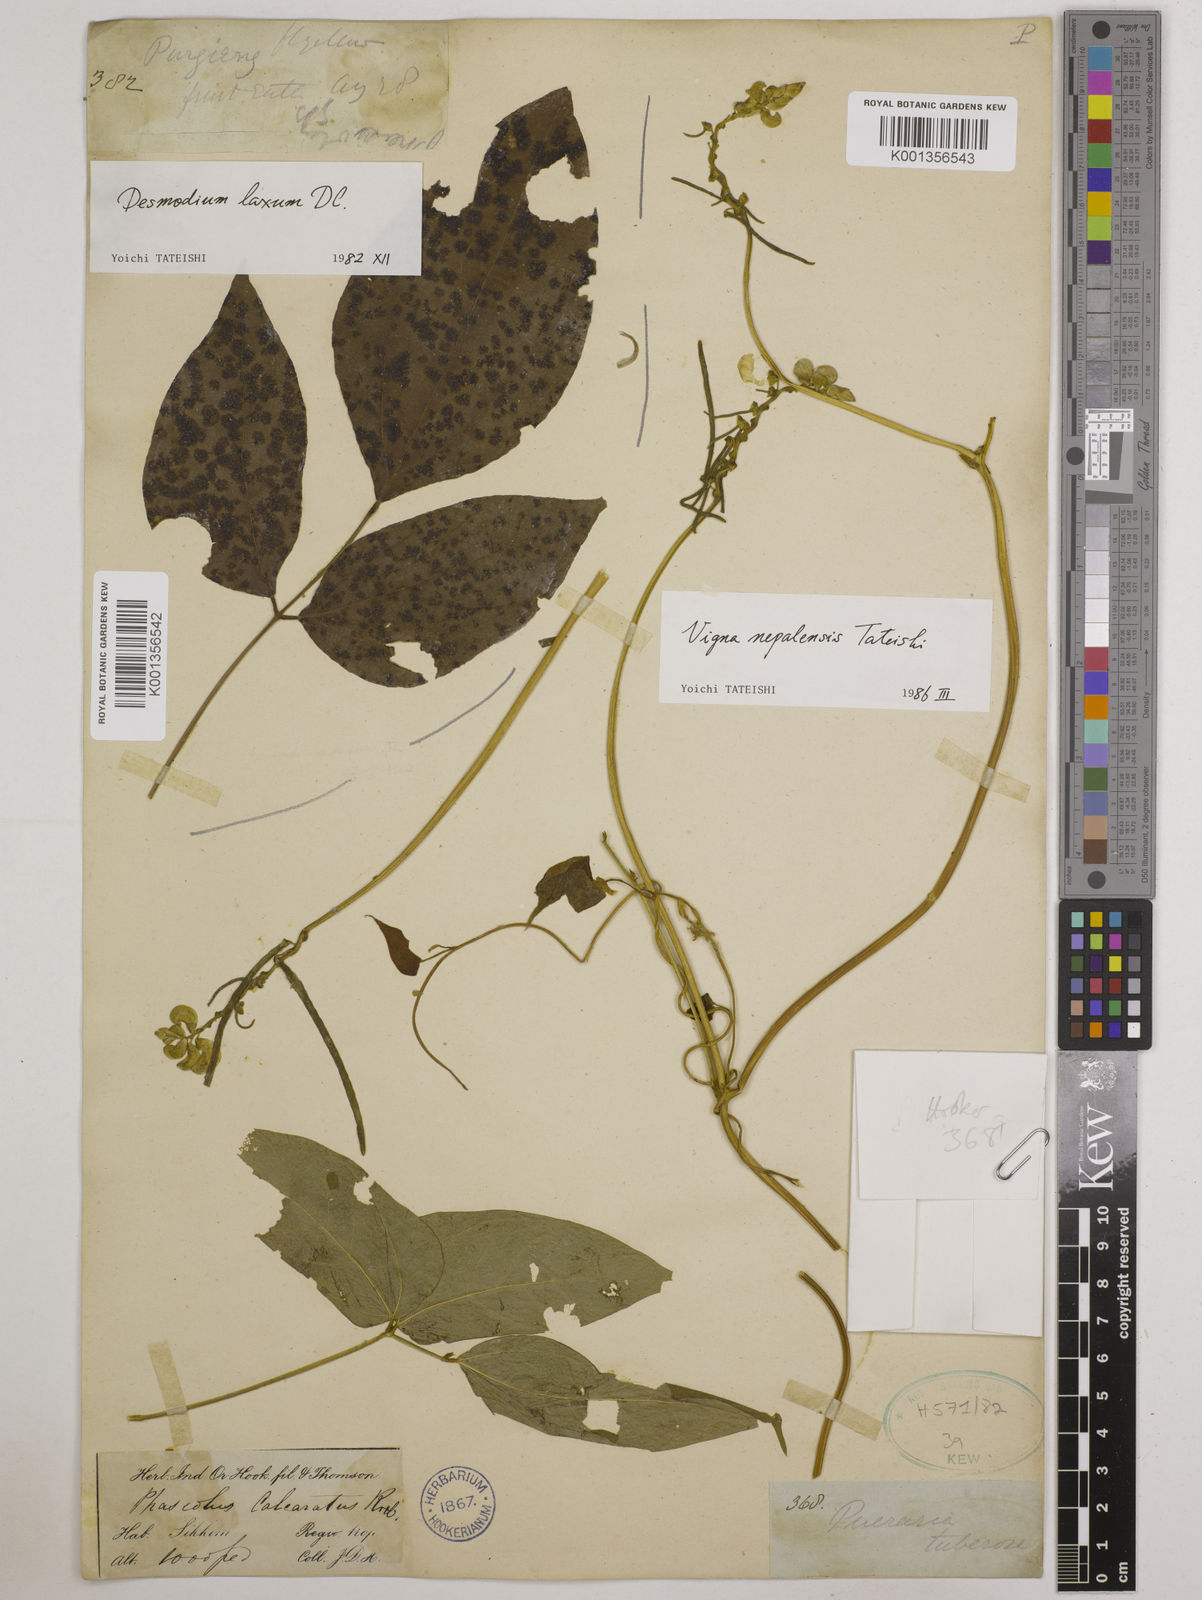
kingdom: Plantae
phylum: Tracheophyta
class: Magnoliopsida
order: Fabales
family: Fabaceae
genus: Vigna
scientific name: Vigna
